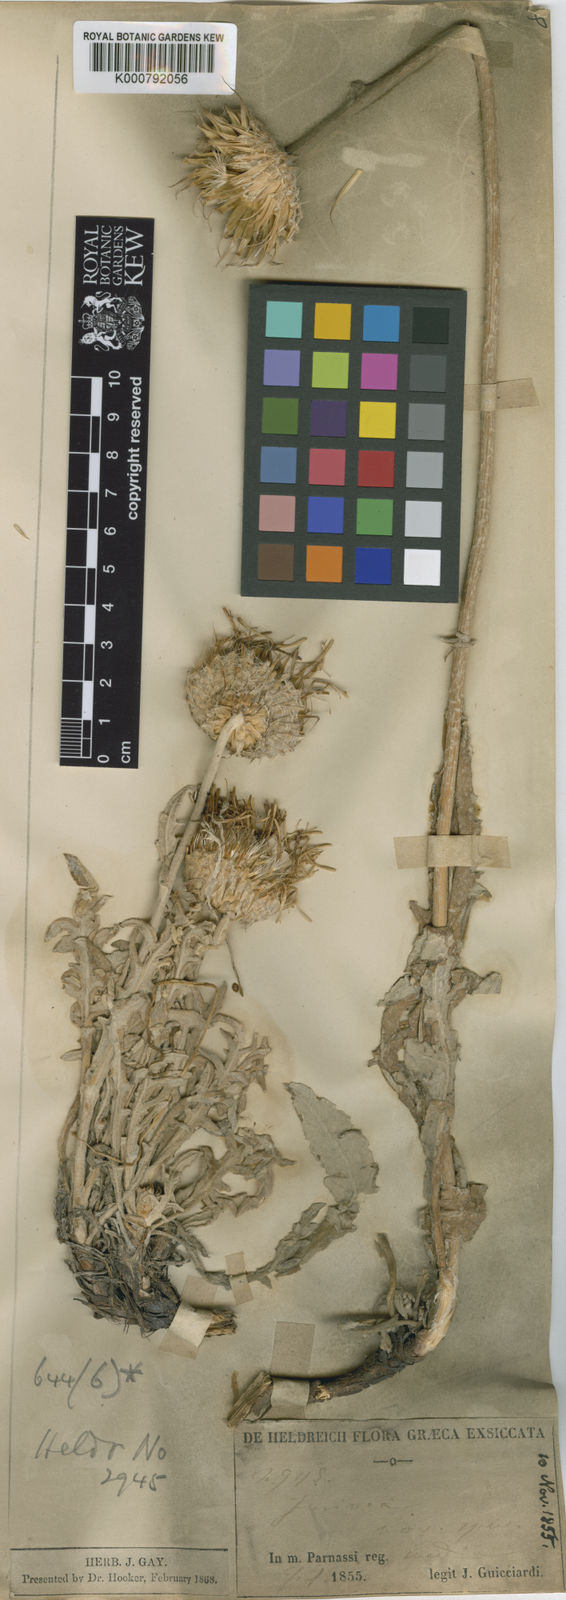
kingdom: Plantae
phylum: Tracheophyta
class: Magnoliopsida
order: Asterales
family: Asteraceae
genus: Jurinea
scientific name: Jurinea glycacantha
